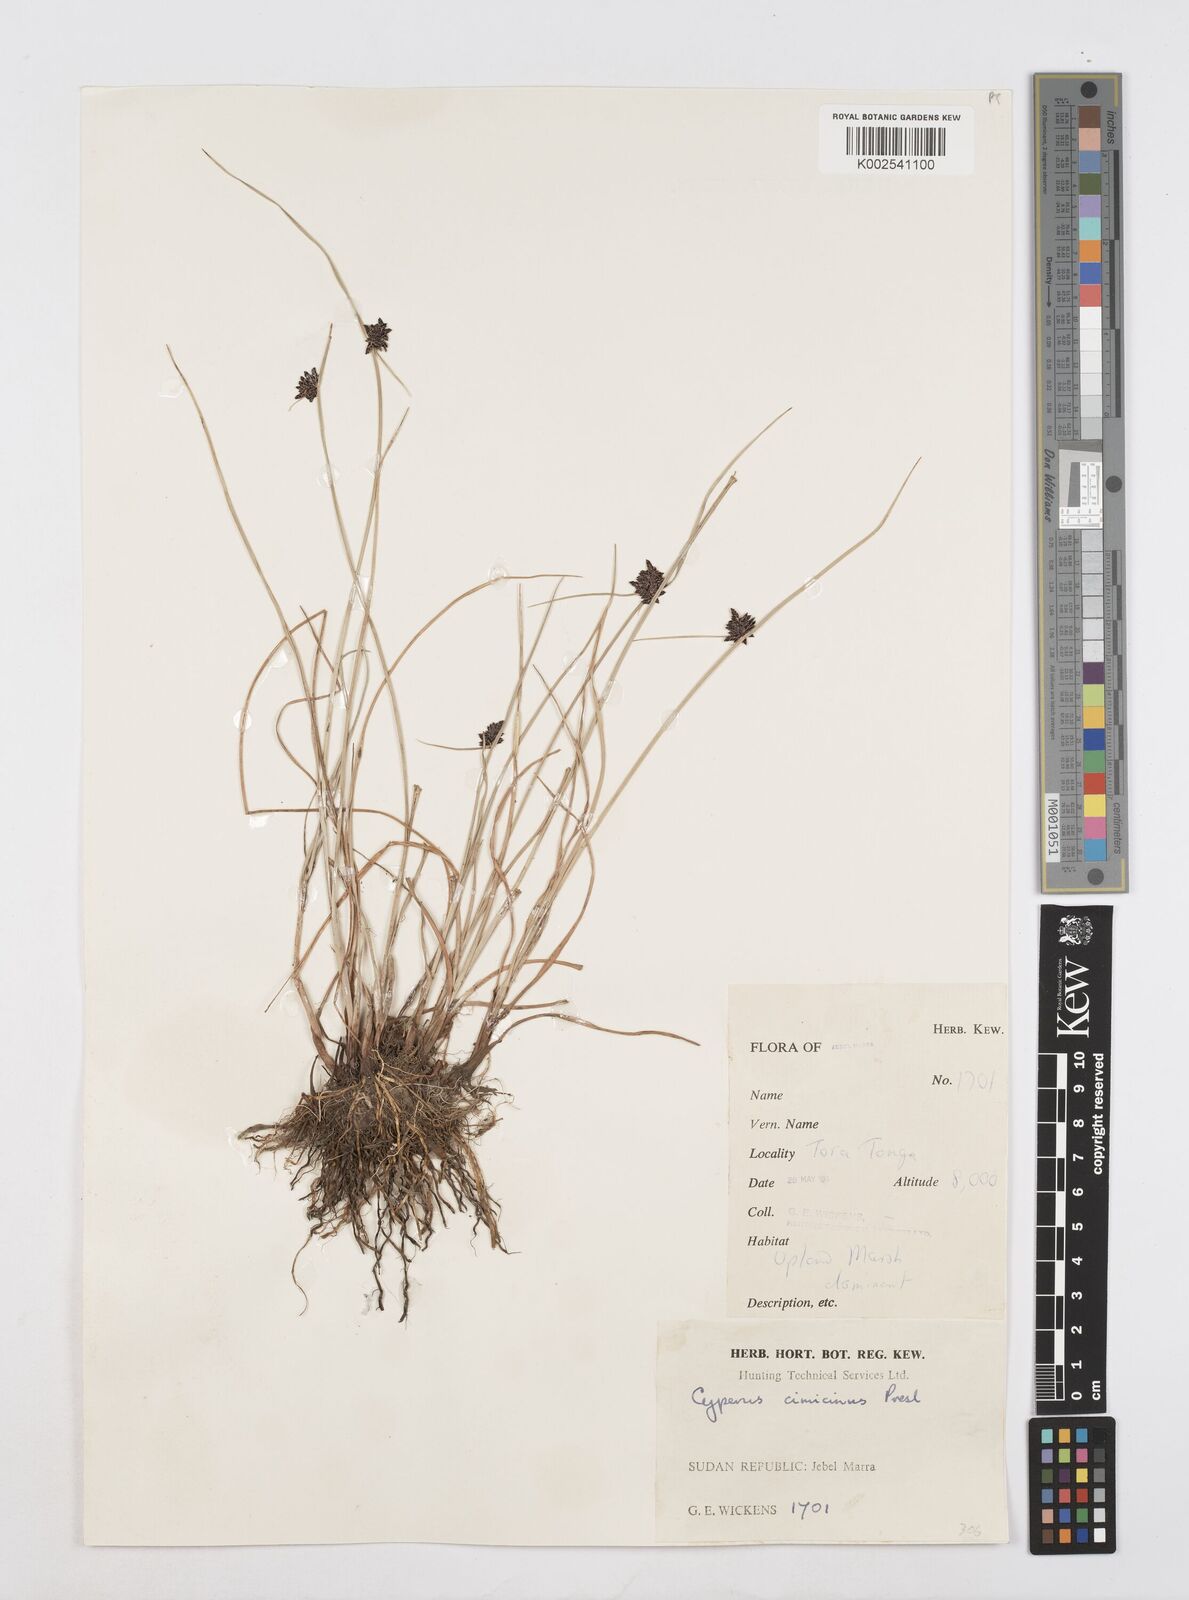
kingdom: Plantae
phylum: Tracheophyta
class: Liliopsida
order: Poales
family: Cyperaceae
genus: Cyperus
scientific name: Cyperus elegantulus
